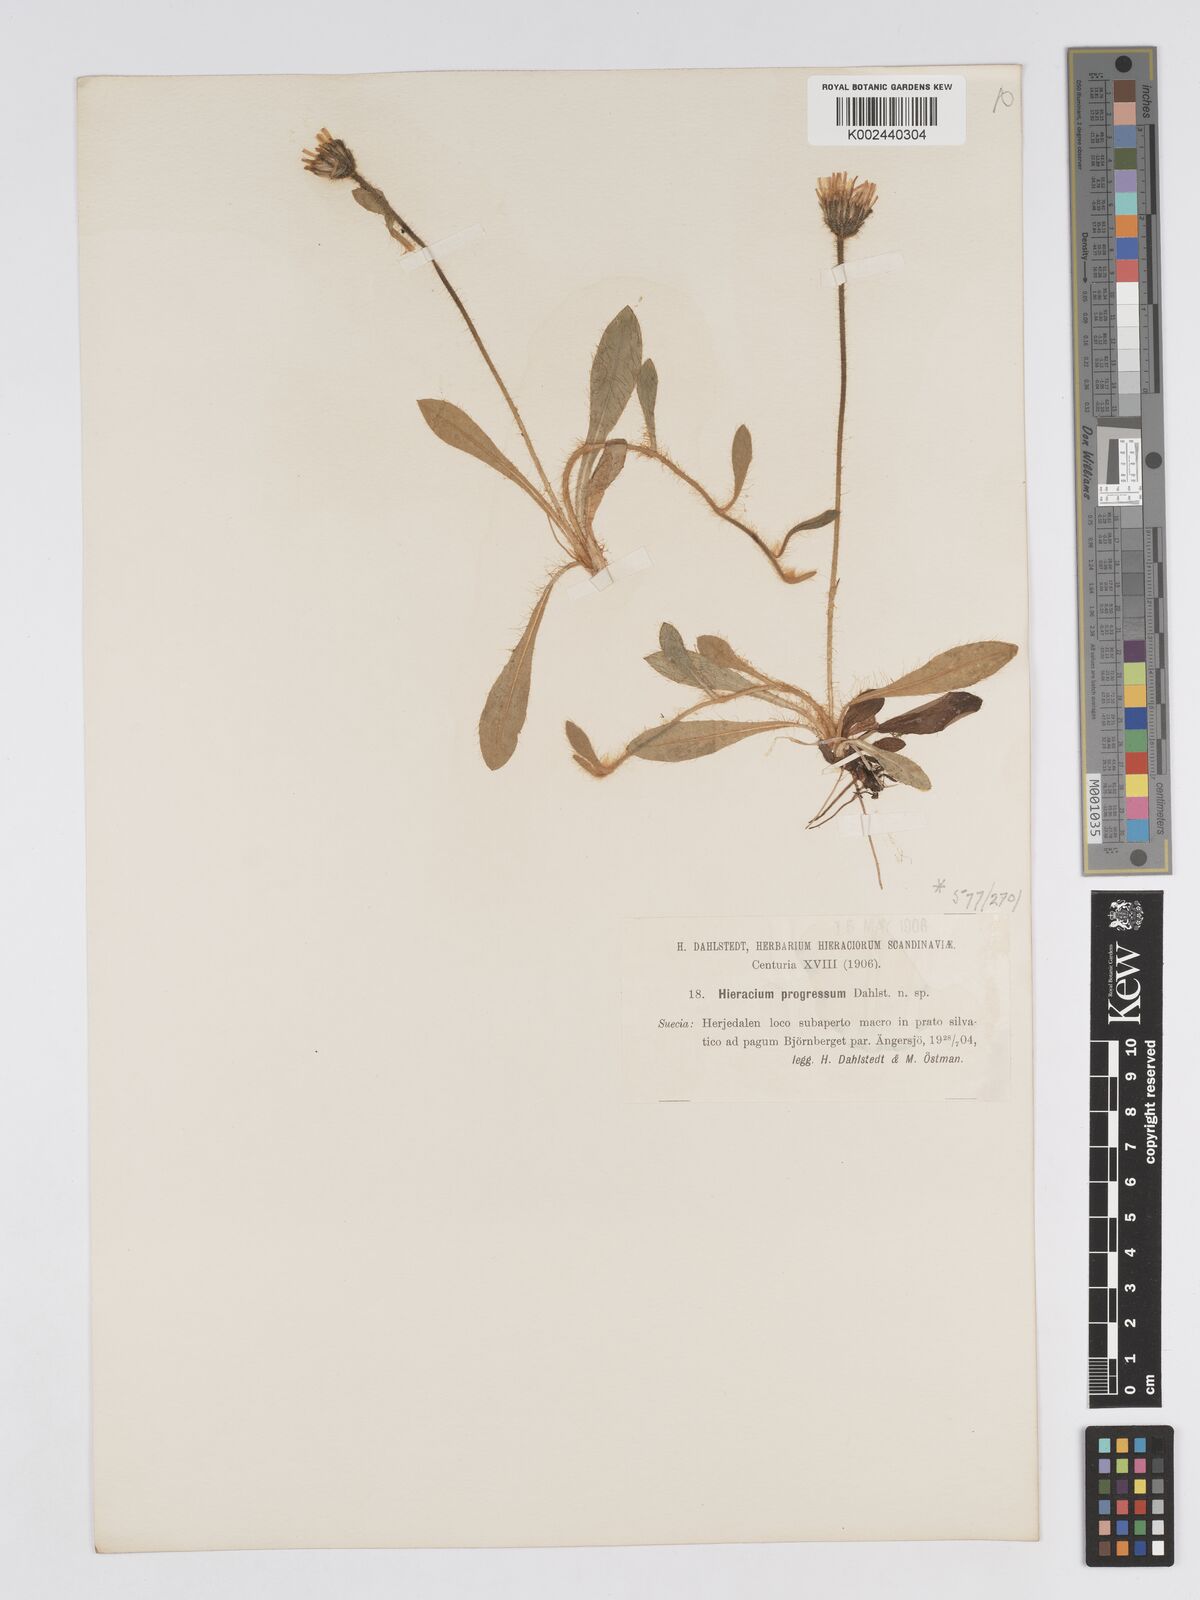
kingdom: Plantae
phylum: Tracheophyta
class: Magnoliopsida
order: Asterales
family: Asteraceae
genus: Pilosella
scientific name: Pilosella officinarum
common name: Mouse-ear hawkweed
